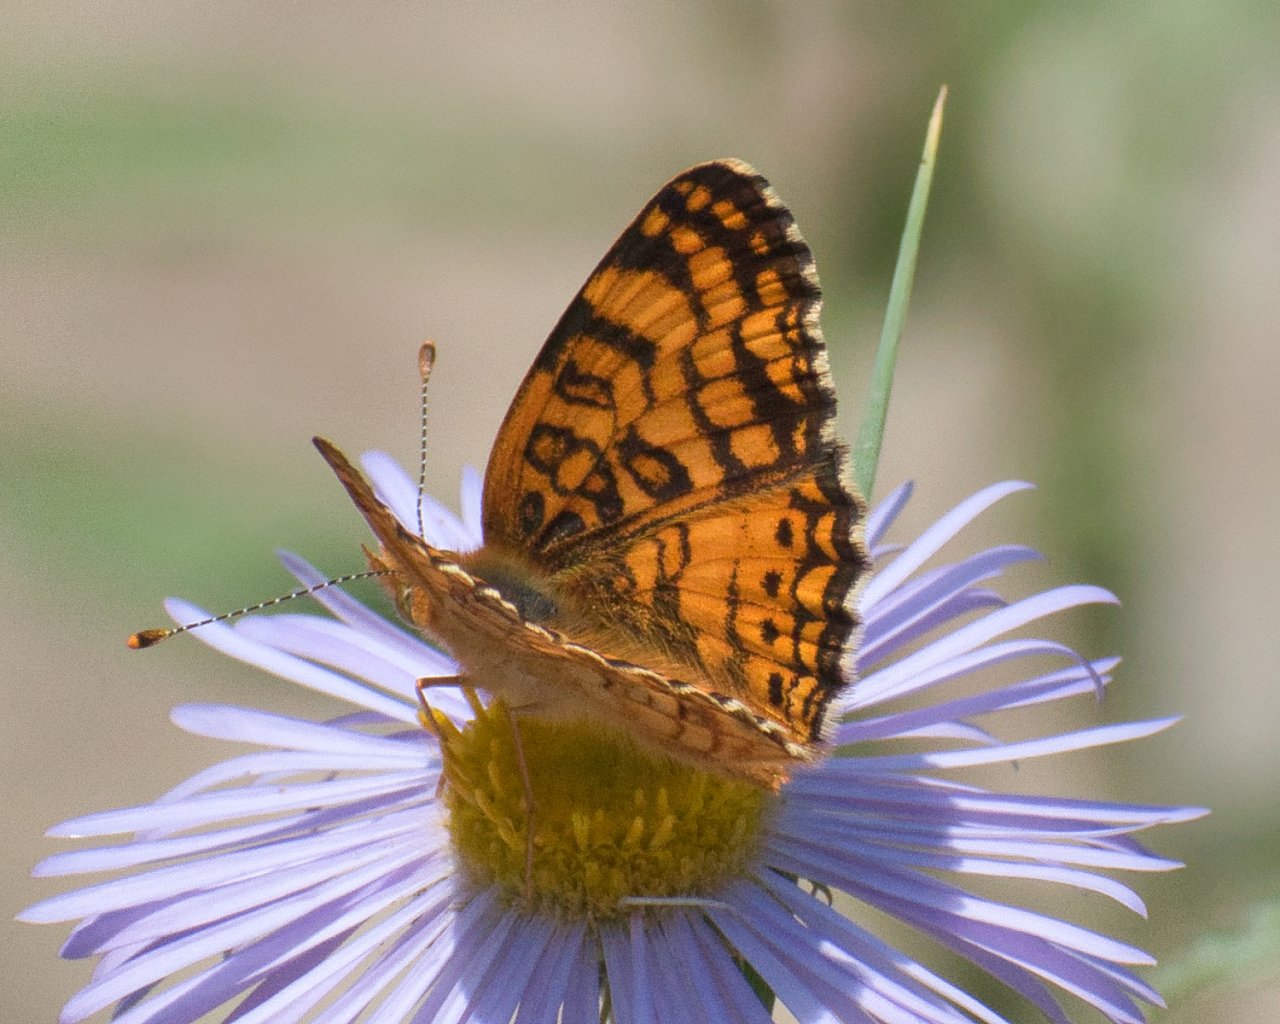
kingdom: Animalia
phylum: Arthropoda
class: Insecta
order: Lepidoptera
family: Nymphalidae
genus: Eresia
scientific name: Eresia aveyrona
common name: Mylitta Crescent
